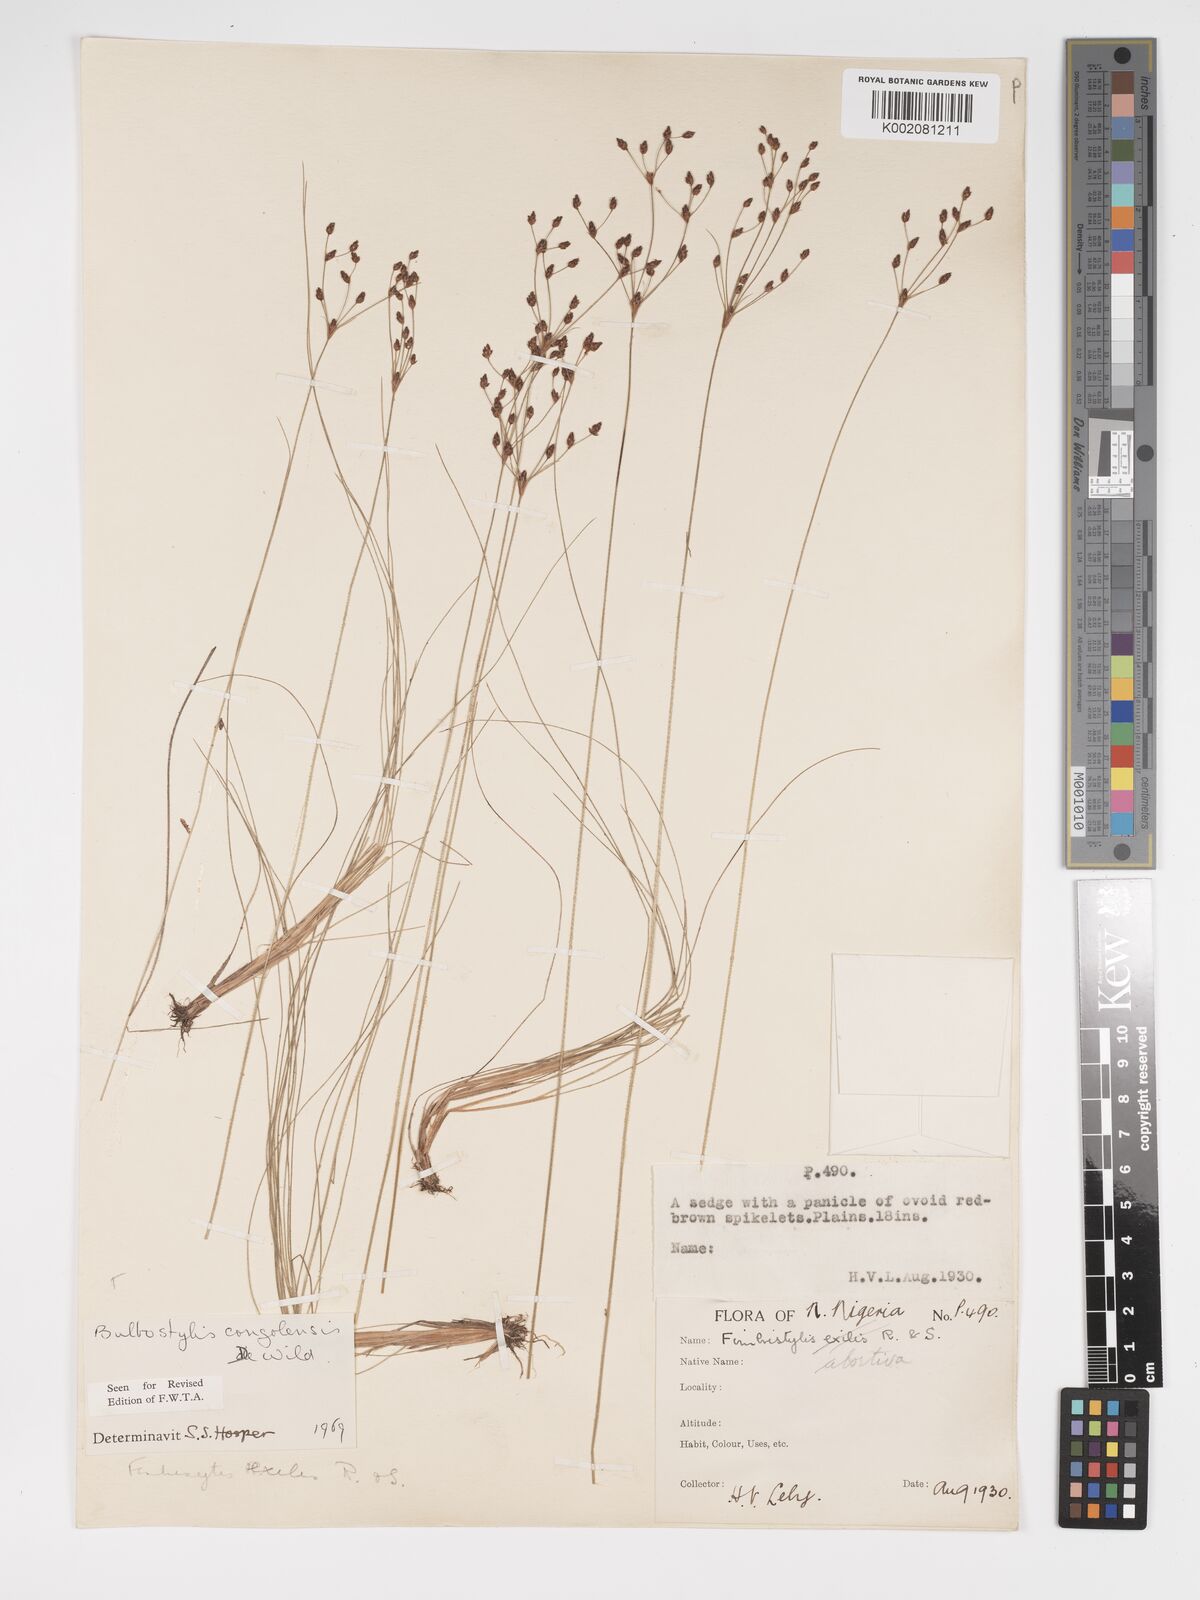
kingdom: Plantae
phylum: Tracheophyta
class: Liliopsida
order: Poales
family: Cyperaceae
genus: Bulbostylis
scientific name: Bulbostylis congolensis
